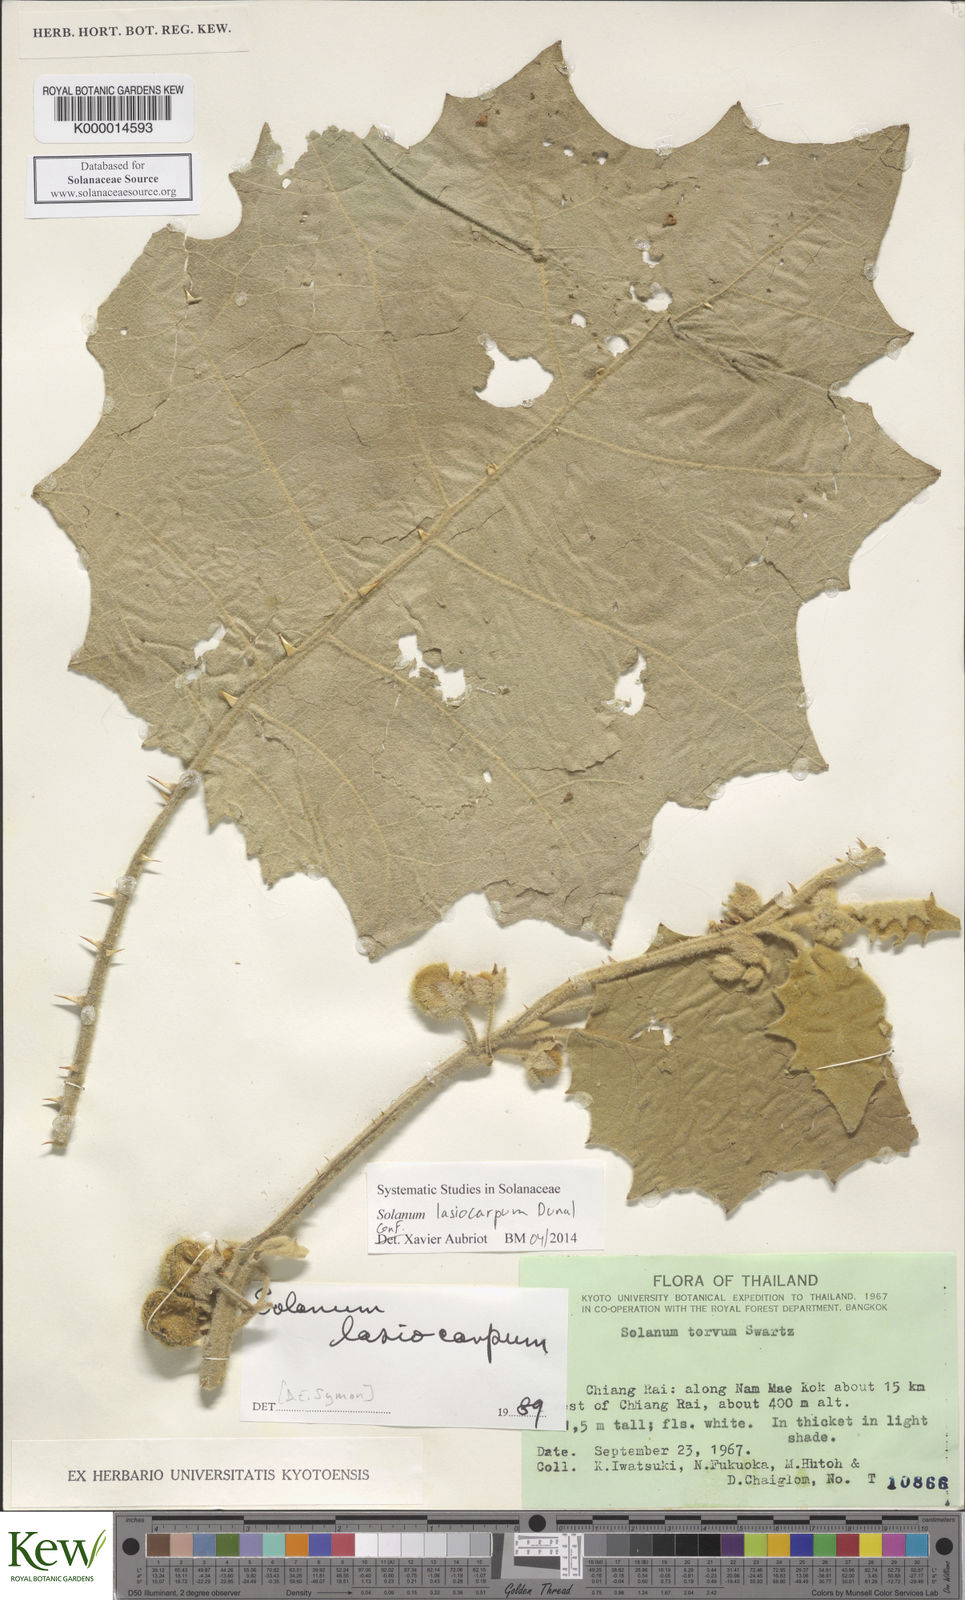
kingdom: Plantae
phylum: Tracheophyta
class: Magnoliopsida
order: Solanales
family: Solanaceae
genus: Solanum
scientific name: Solanum lasiocarpum
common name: Indian nightshade
